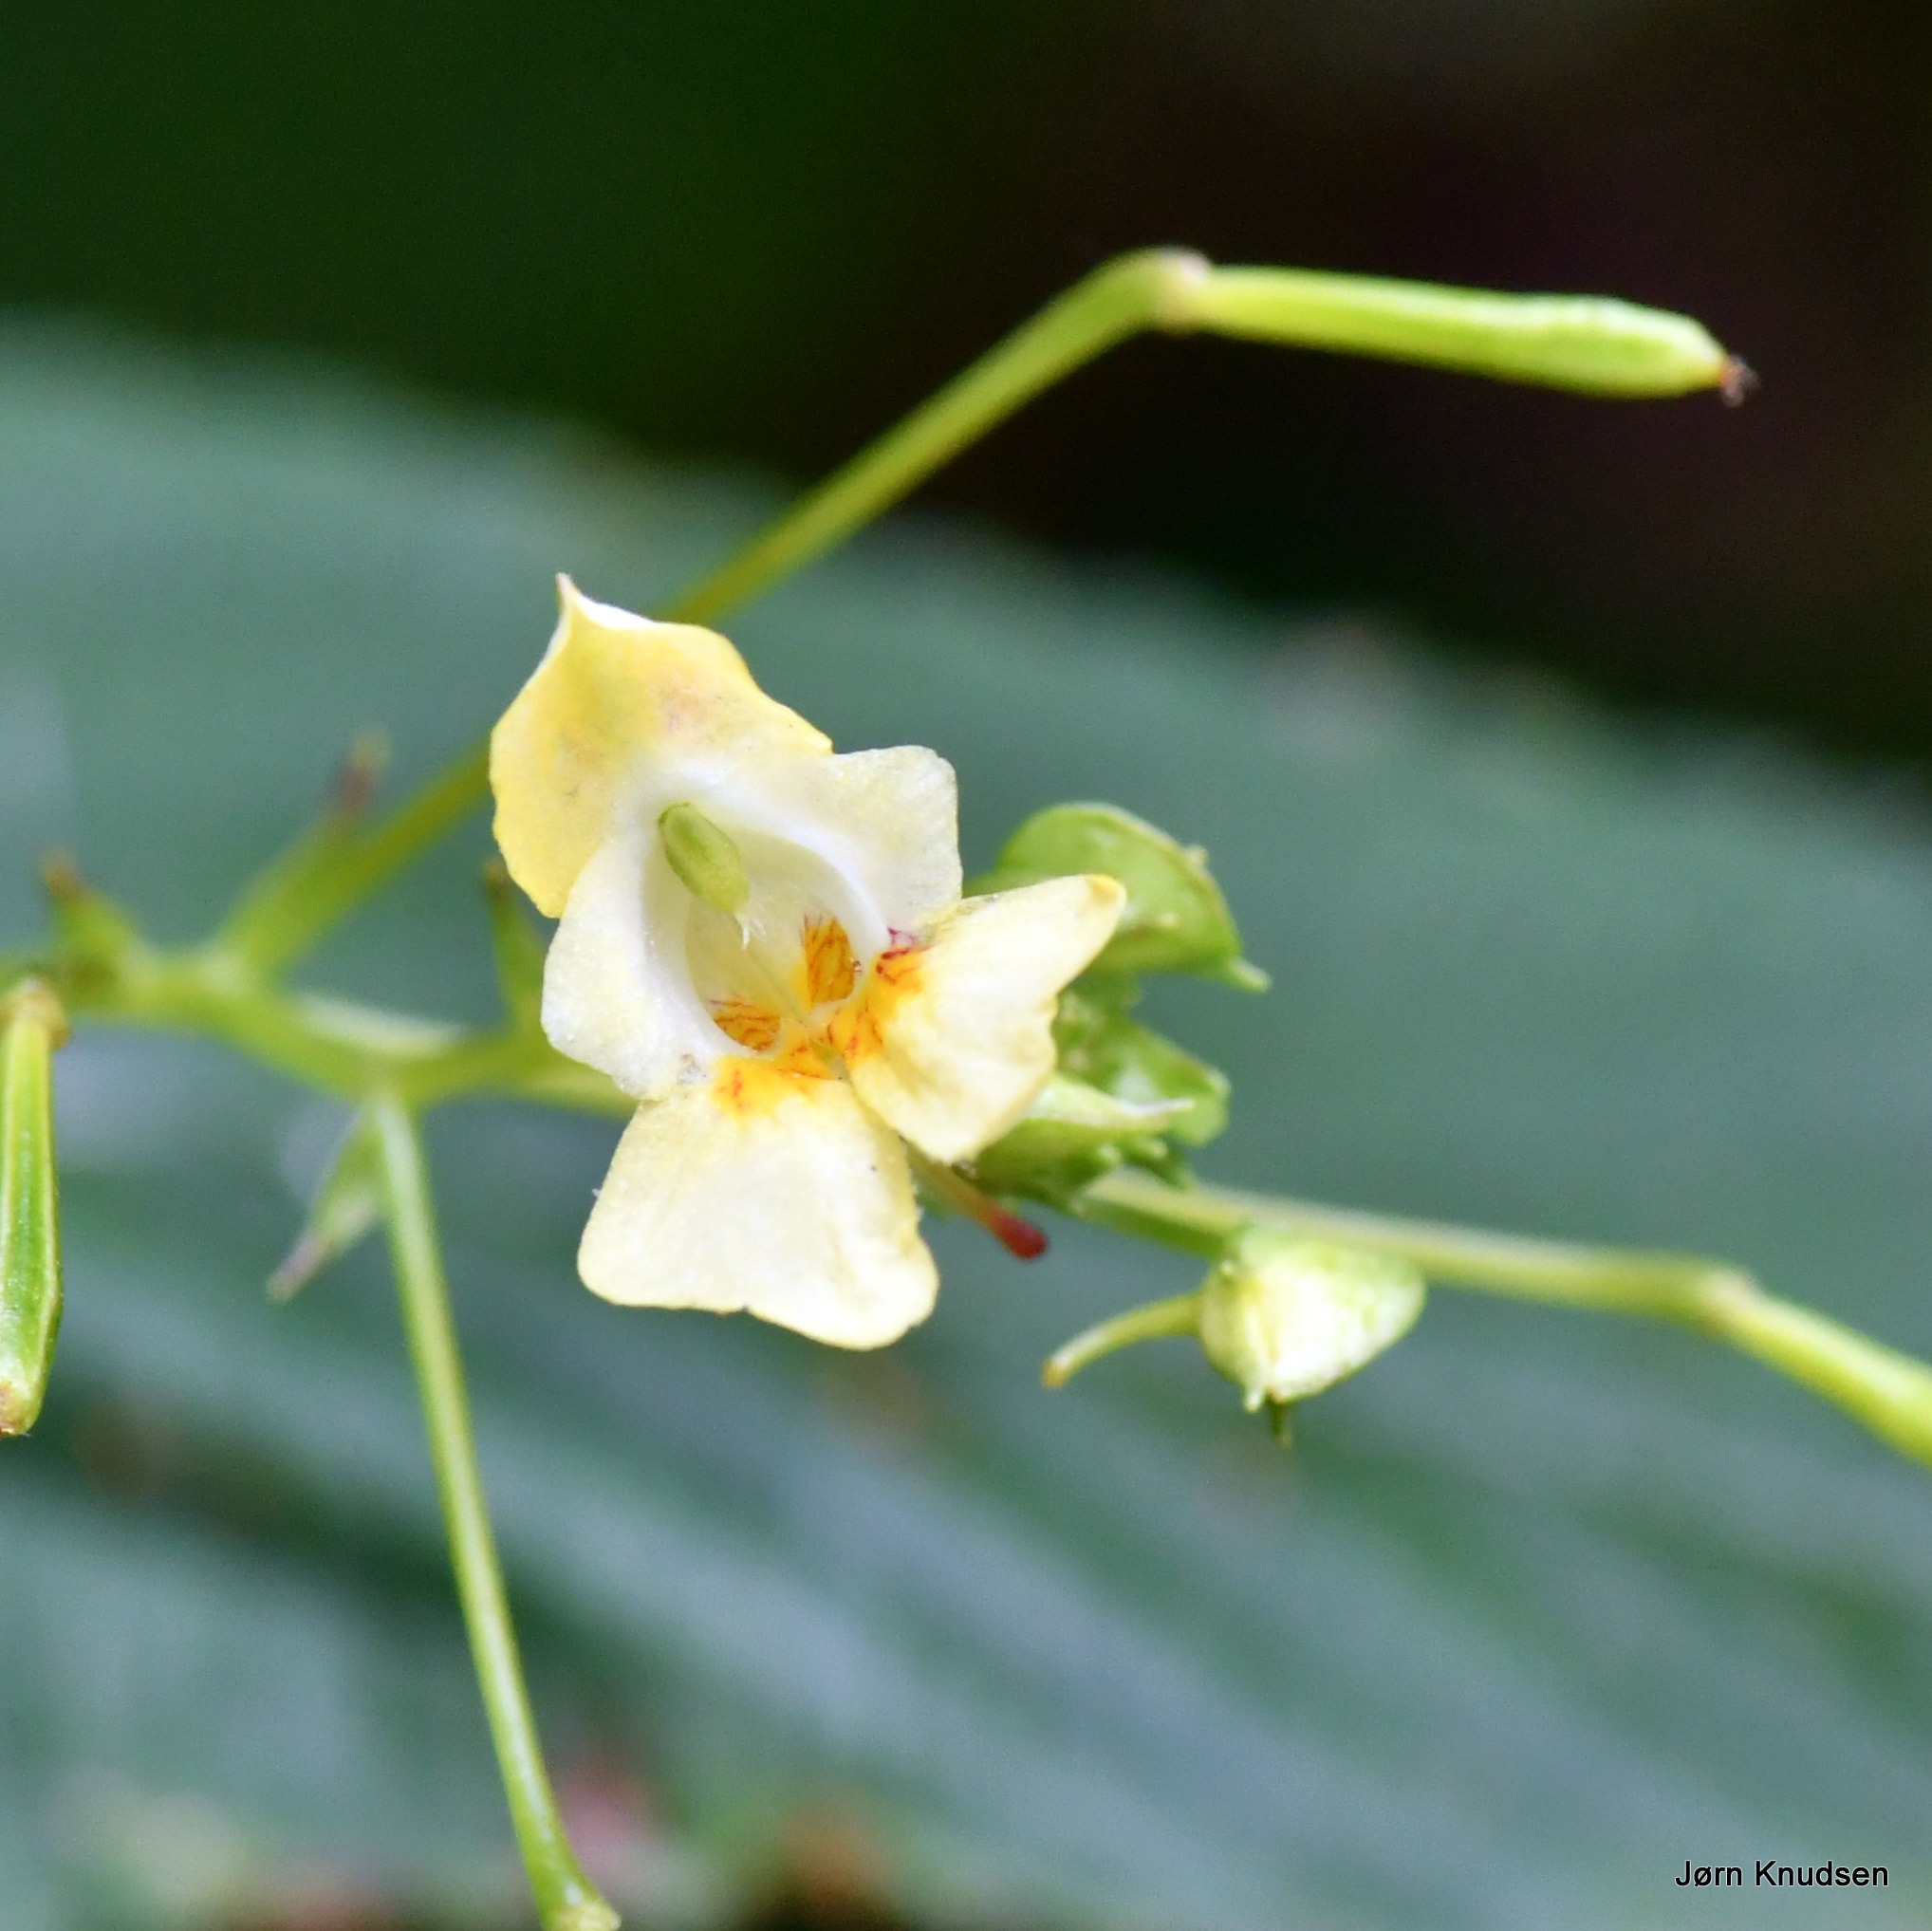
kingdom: Plantae
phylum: Tracheophyta
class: Magnoliopsida
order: Ericales
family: Balsaminaceae
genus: Impatiens
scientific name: Impatiens parviflora
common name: Småblomstret balsamin
